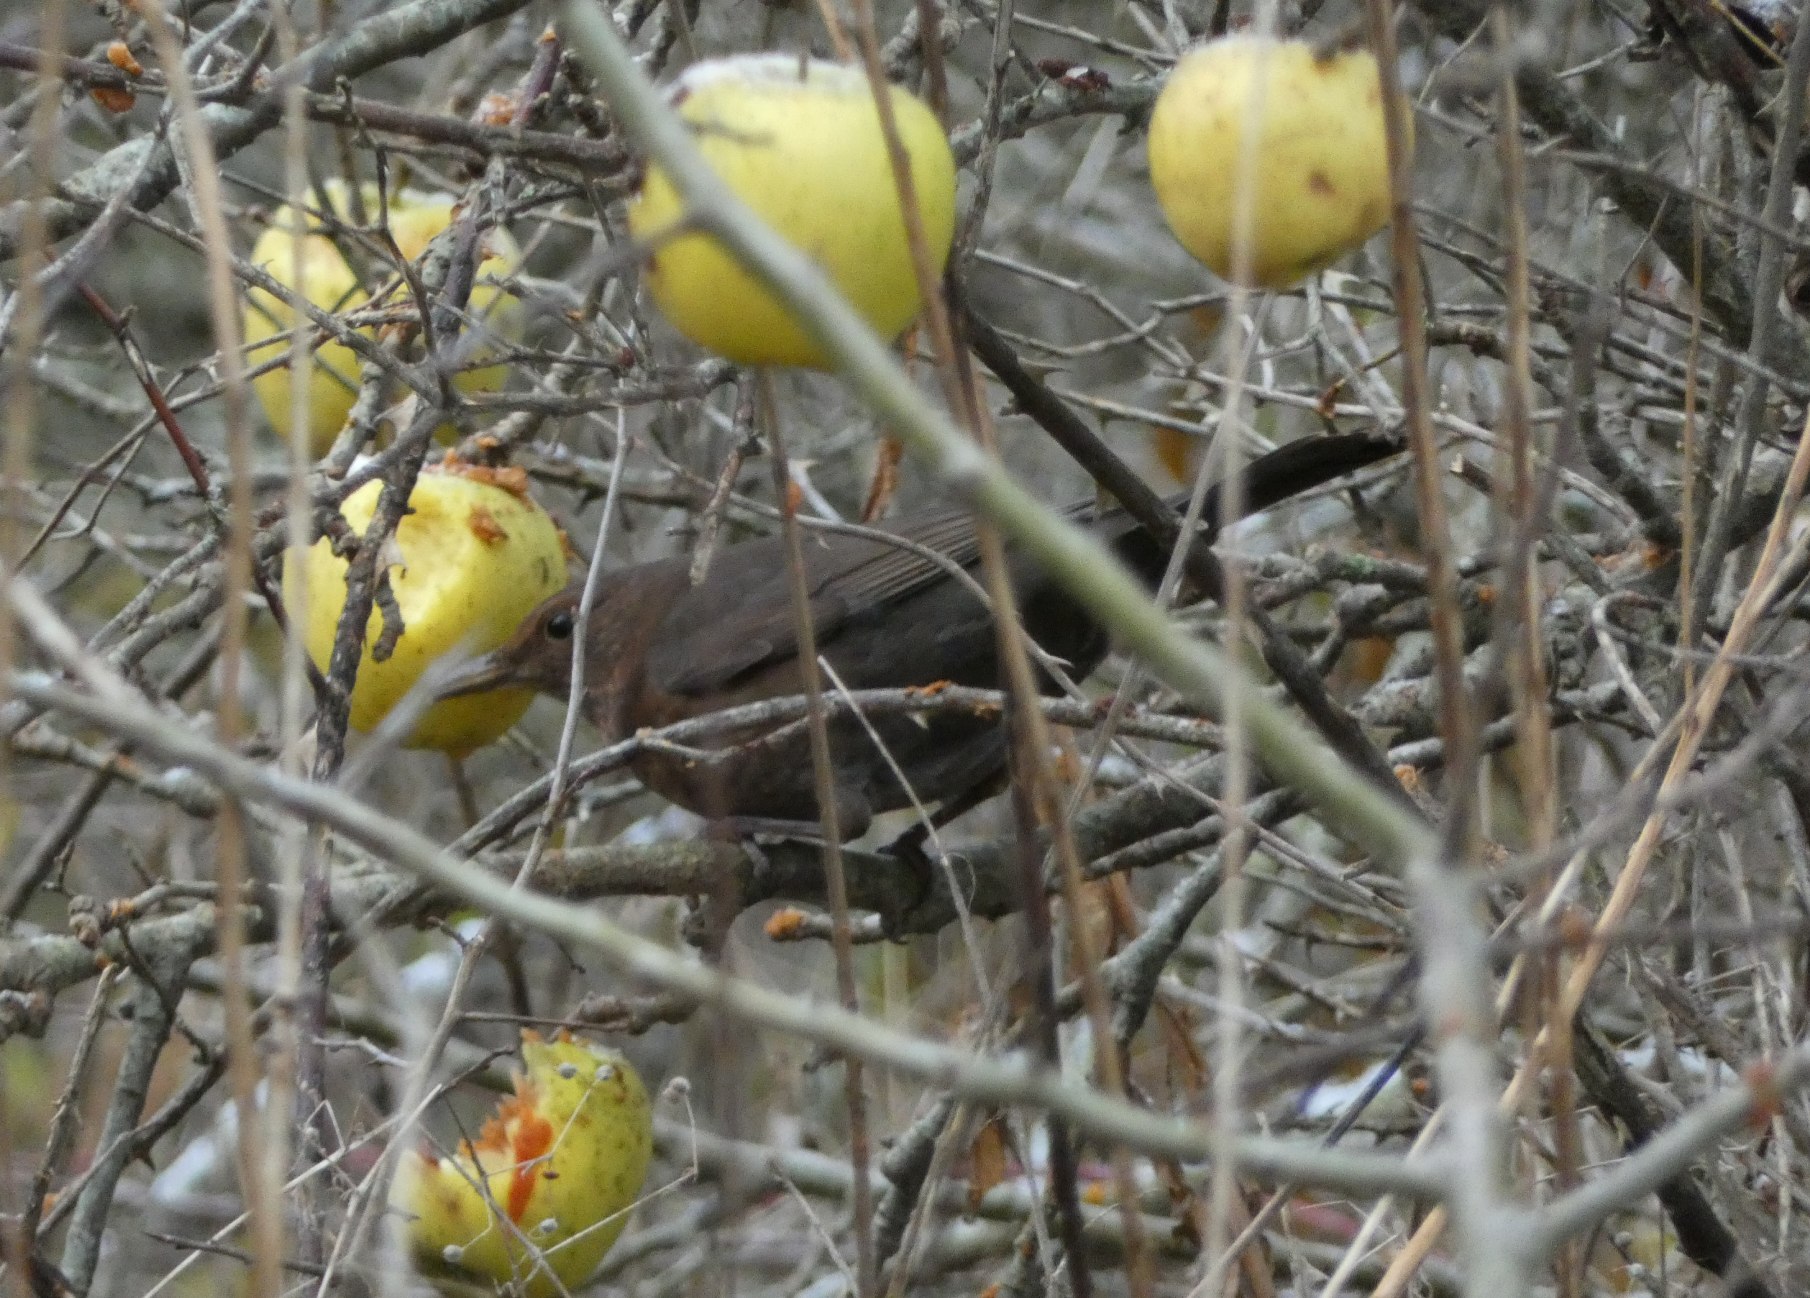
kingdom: Animalia
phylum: Chordata
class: Aves
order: Passeriformes
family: Turdidae
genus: Turdus
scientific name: Turdus merula
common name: Solsort
